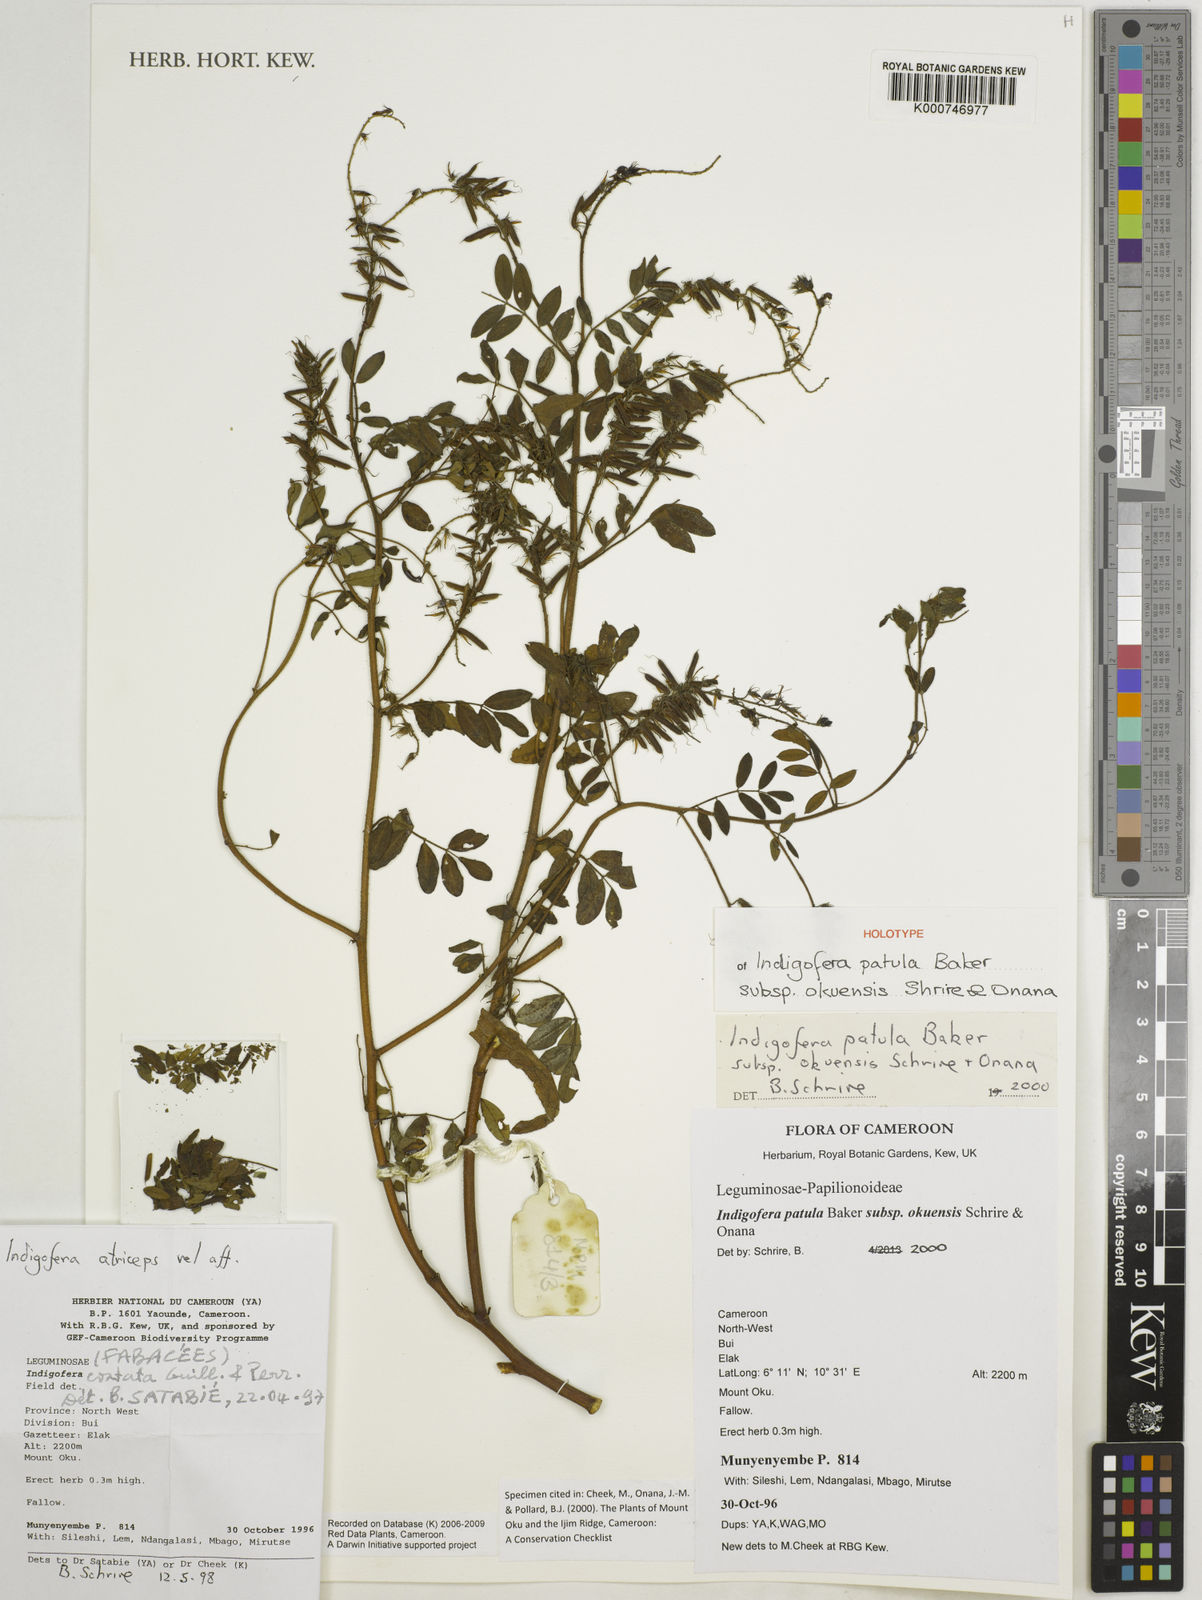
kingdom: Plantae
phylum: Tracheophyta
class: Magnoliopsida
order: Fabales
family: Fabaceae
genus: Indigofera
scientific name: Indigofera patula
